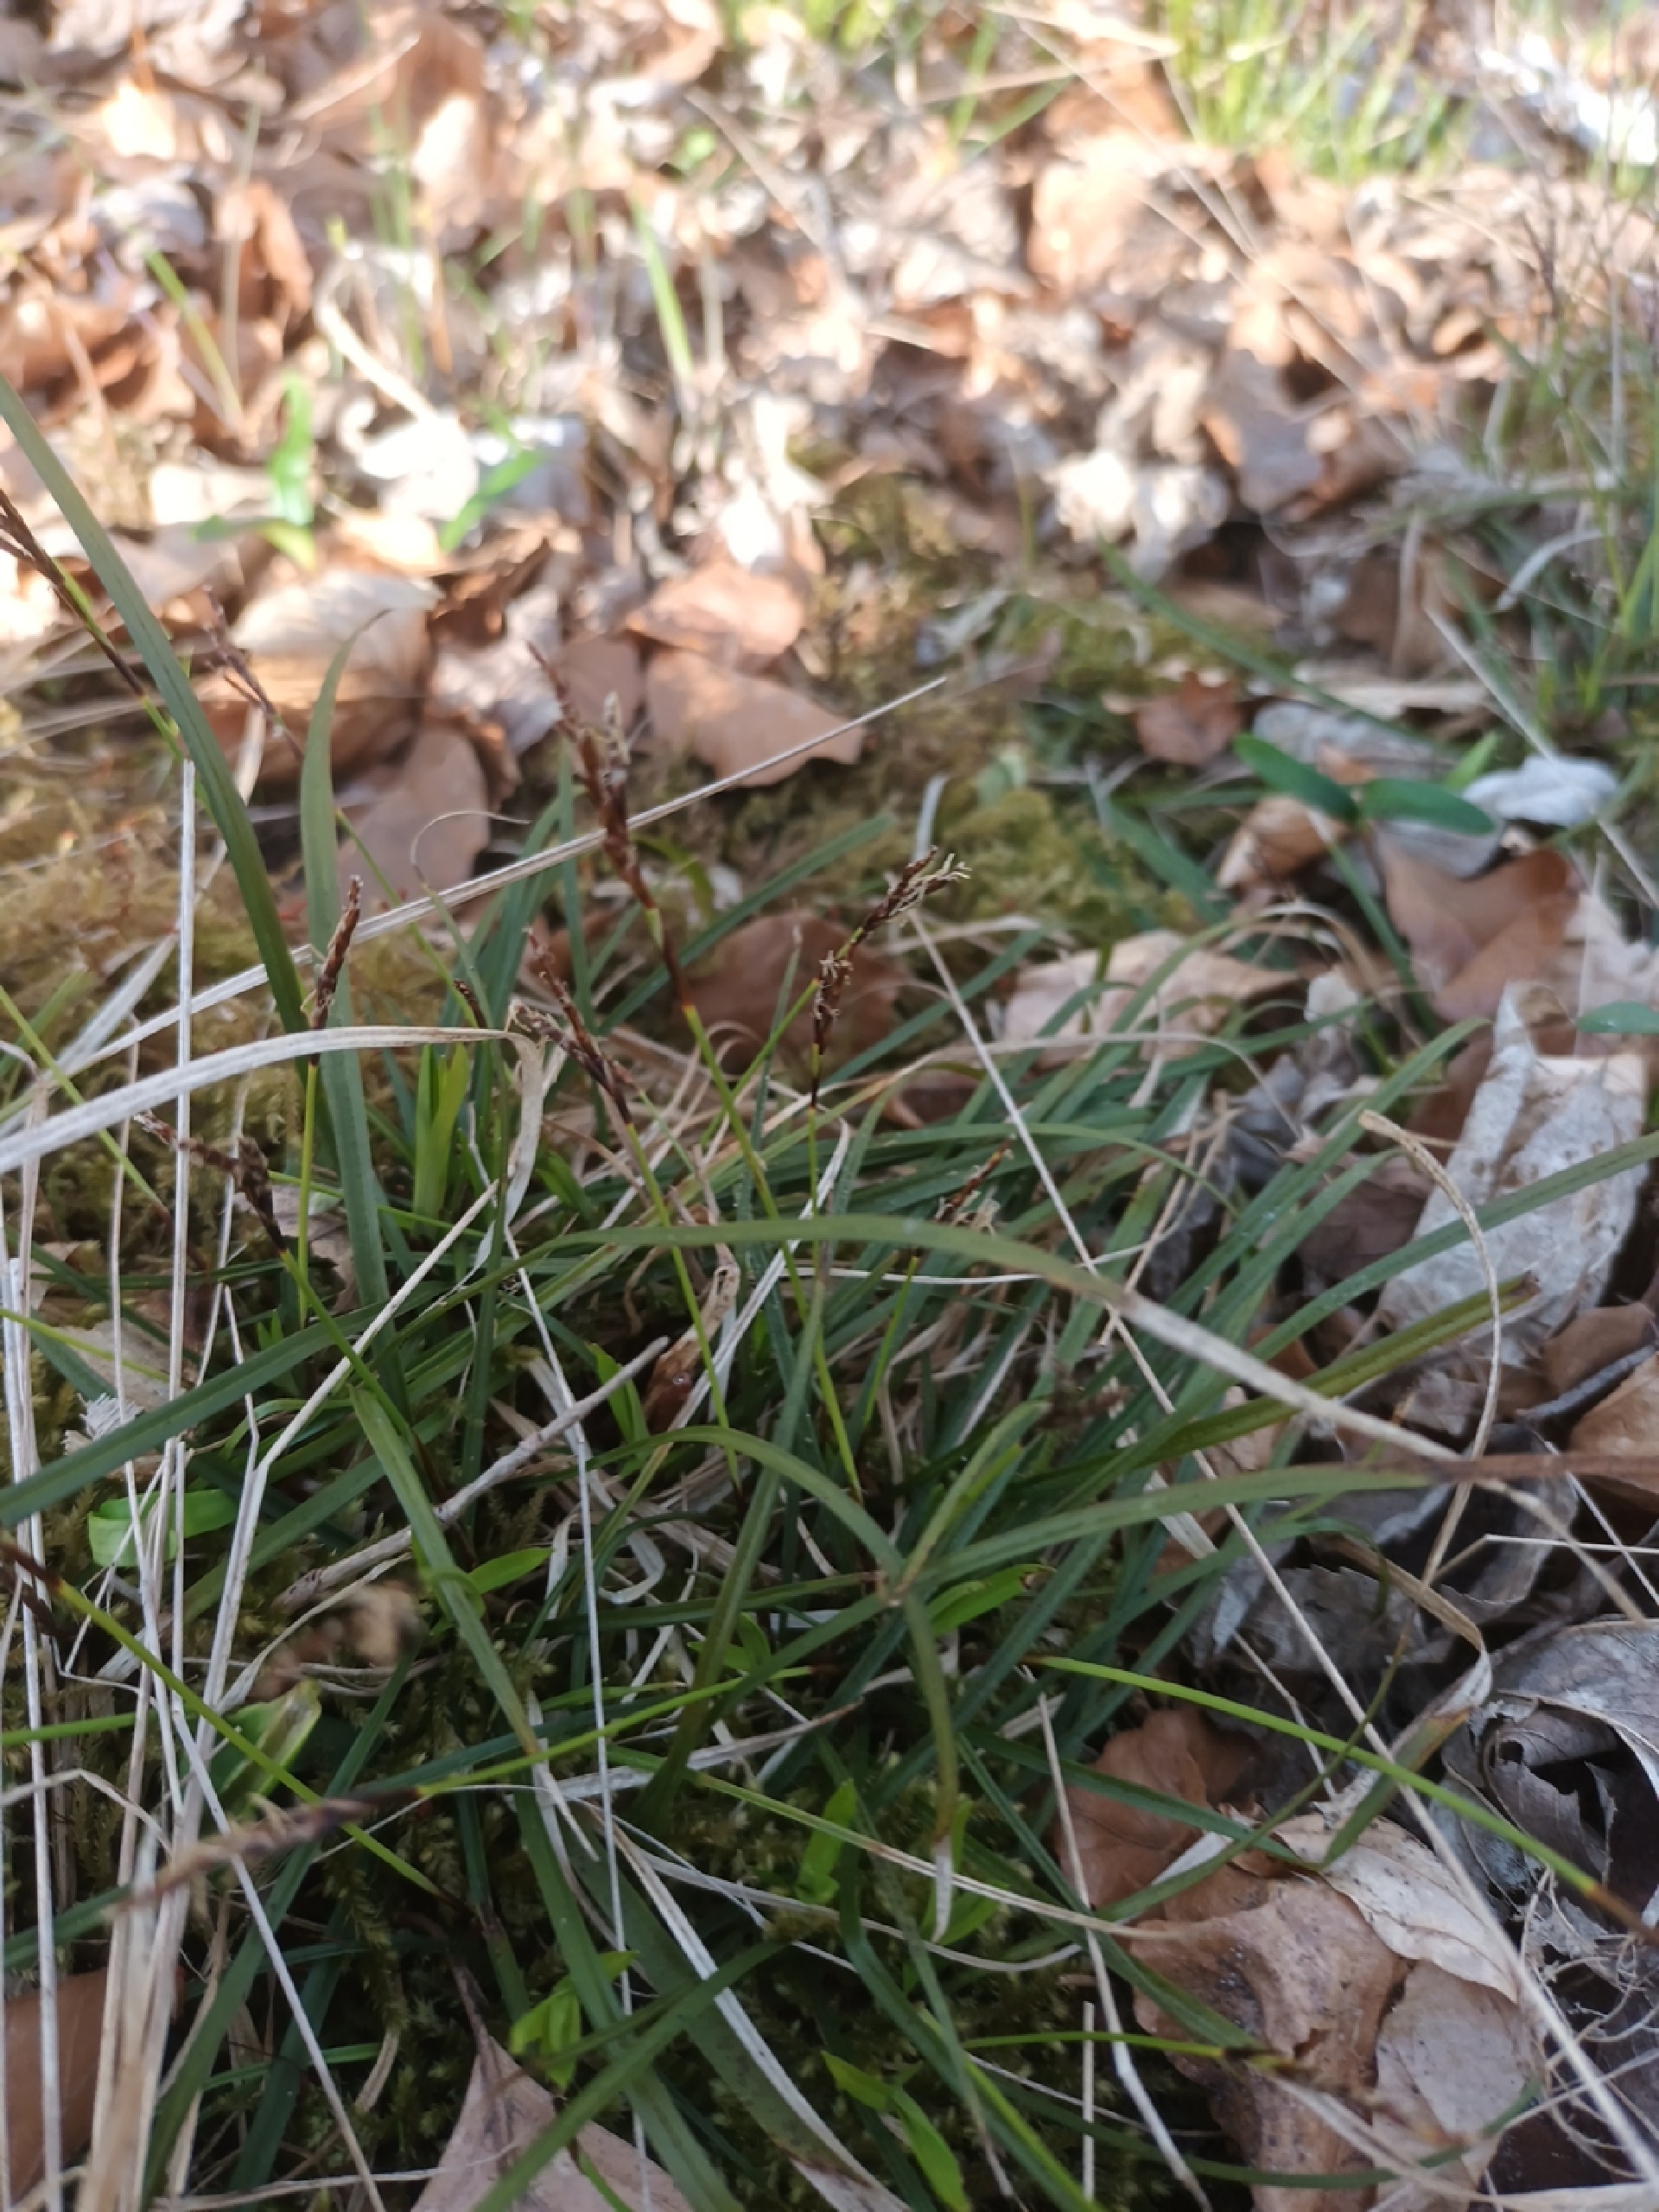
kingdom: Plantae
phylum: Tracheophyta
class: Liliopsida
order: Poales
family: Cyperaceae
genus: Carex
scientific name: Carex digitata
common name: Finger-star
